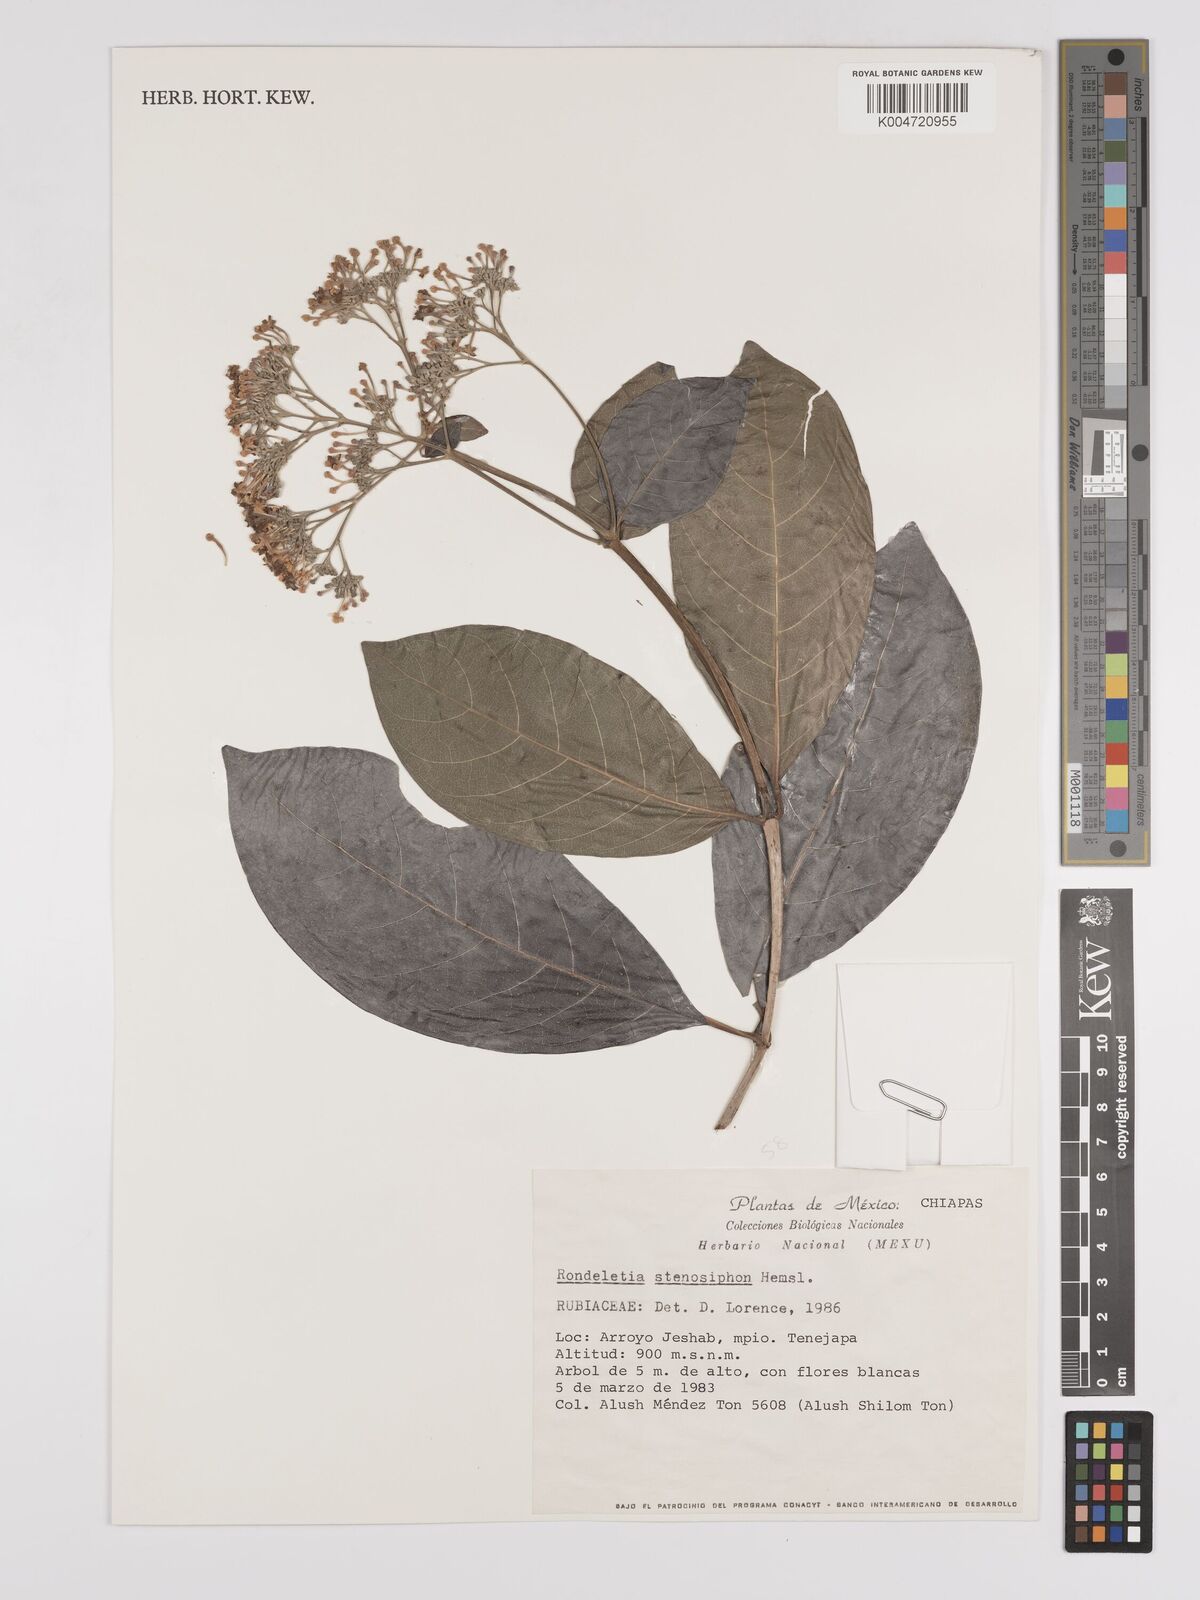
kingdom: Plantae
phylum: Tracheophyta
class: Magnoliopsida
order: Gentianales
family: Rubiaceae
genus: Rogiera
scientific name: Rogiera stenosiphon
